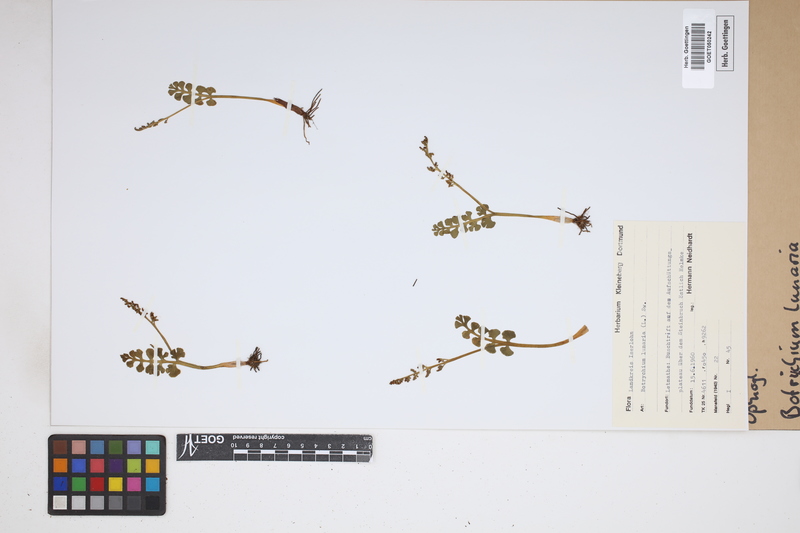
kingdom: Plantae
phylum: Tracheophyta
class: Polypodiopsida
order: Ophioglossales
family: Ophioglossaceae
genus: Botrychium
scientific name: Botrychium lunaria
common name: Moonwort
